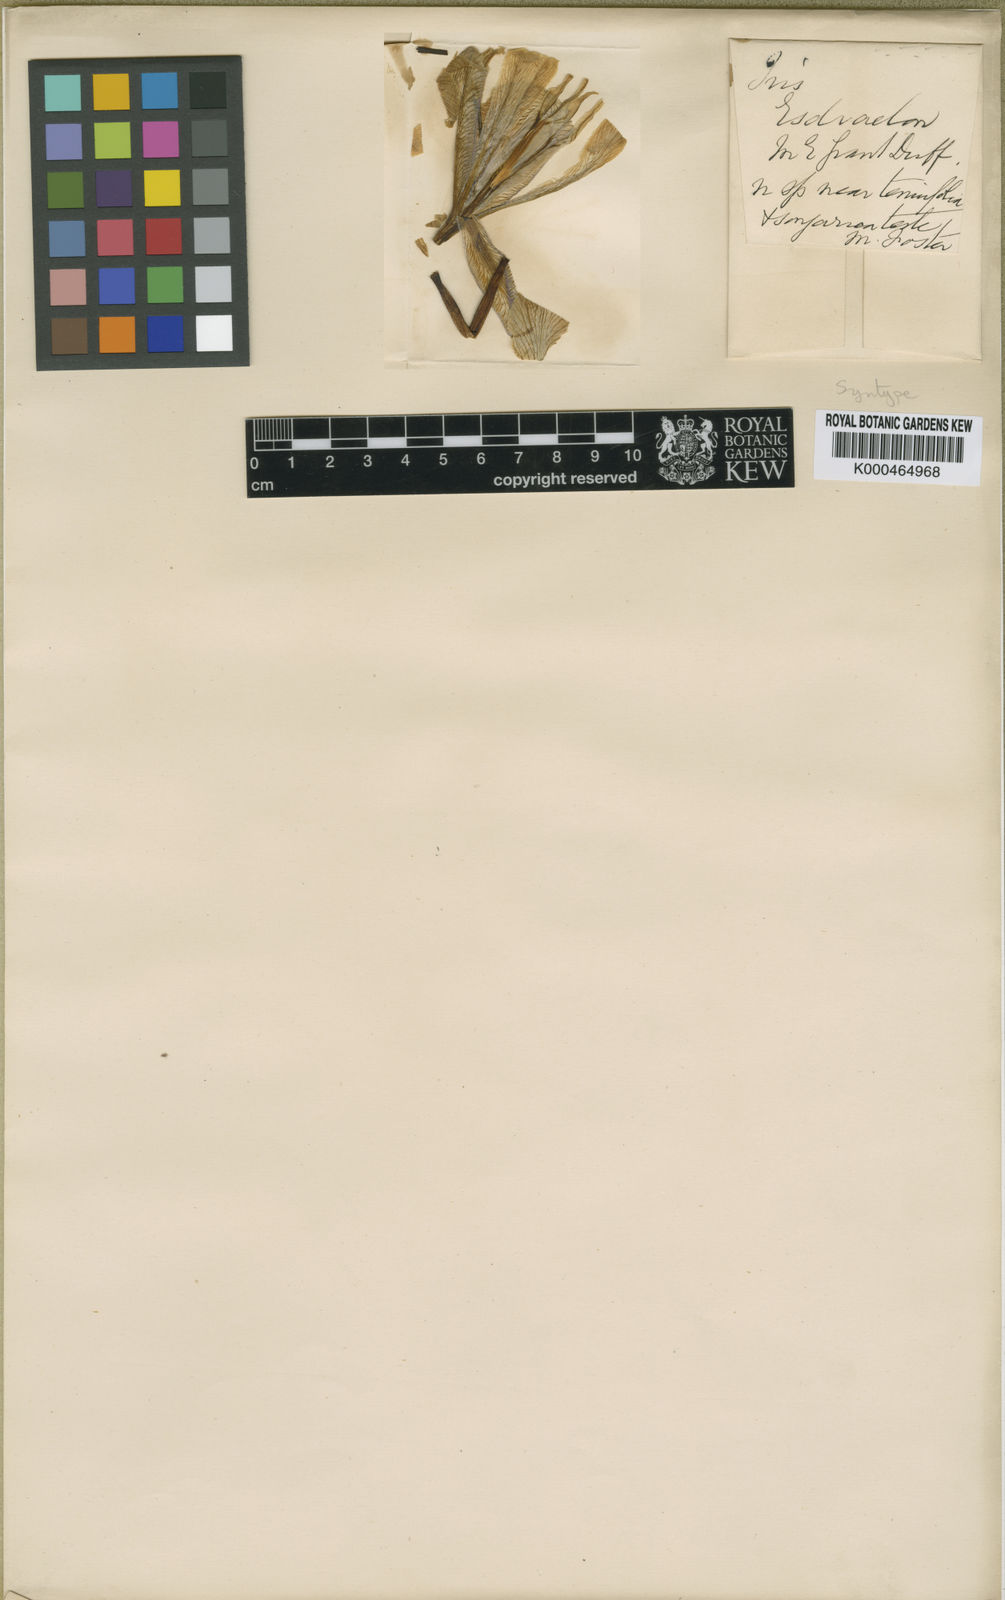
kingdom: Plantae
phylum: Tracheophyta
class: Liliopsida
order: Asparagales
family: Iridaceae
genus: Iris
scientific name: Iris grant-duffii
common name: Grant duff's iris
